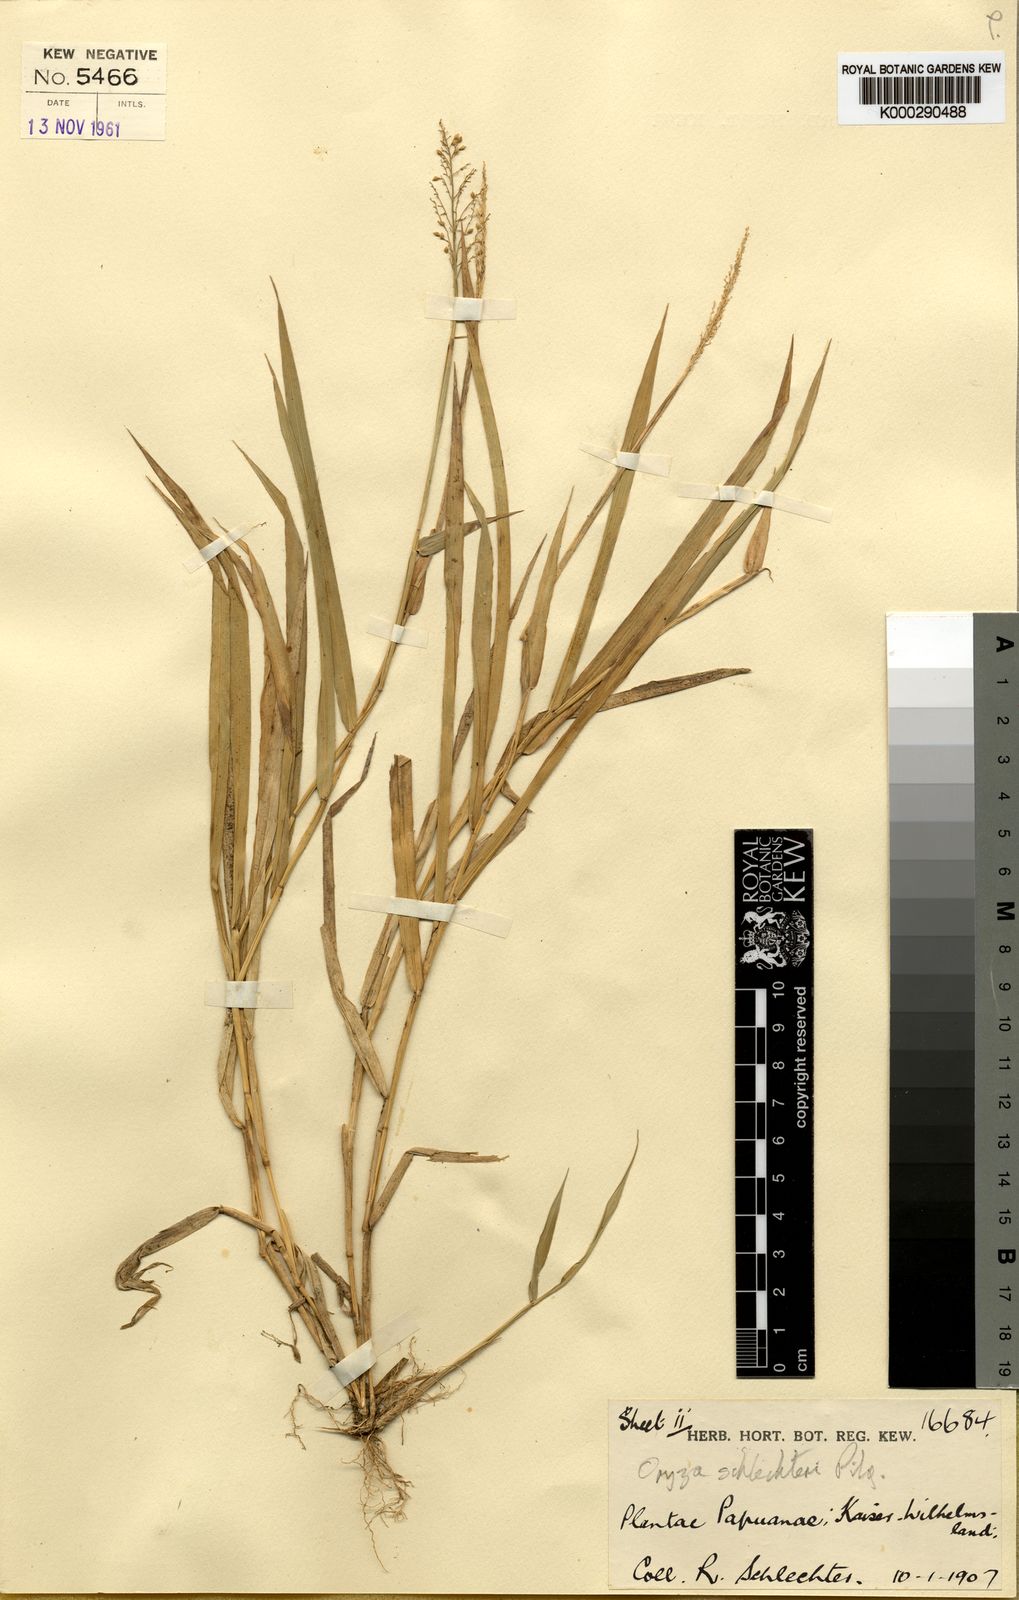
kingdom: Plantae
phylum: Tracheophyta
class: Liliopsida
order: Poales
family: Poaceae
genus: Oryza
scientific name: Oryza schlechteri
